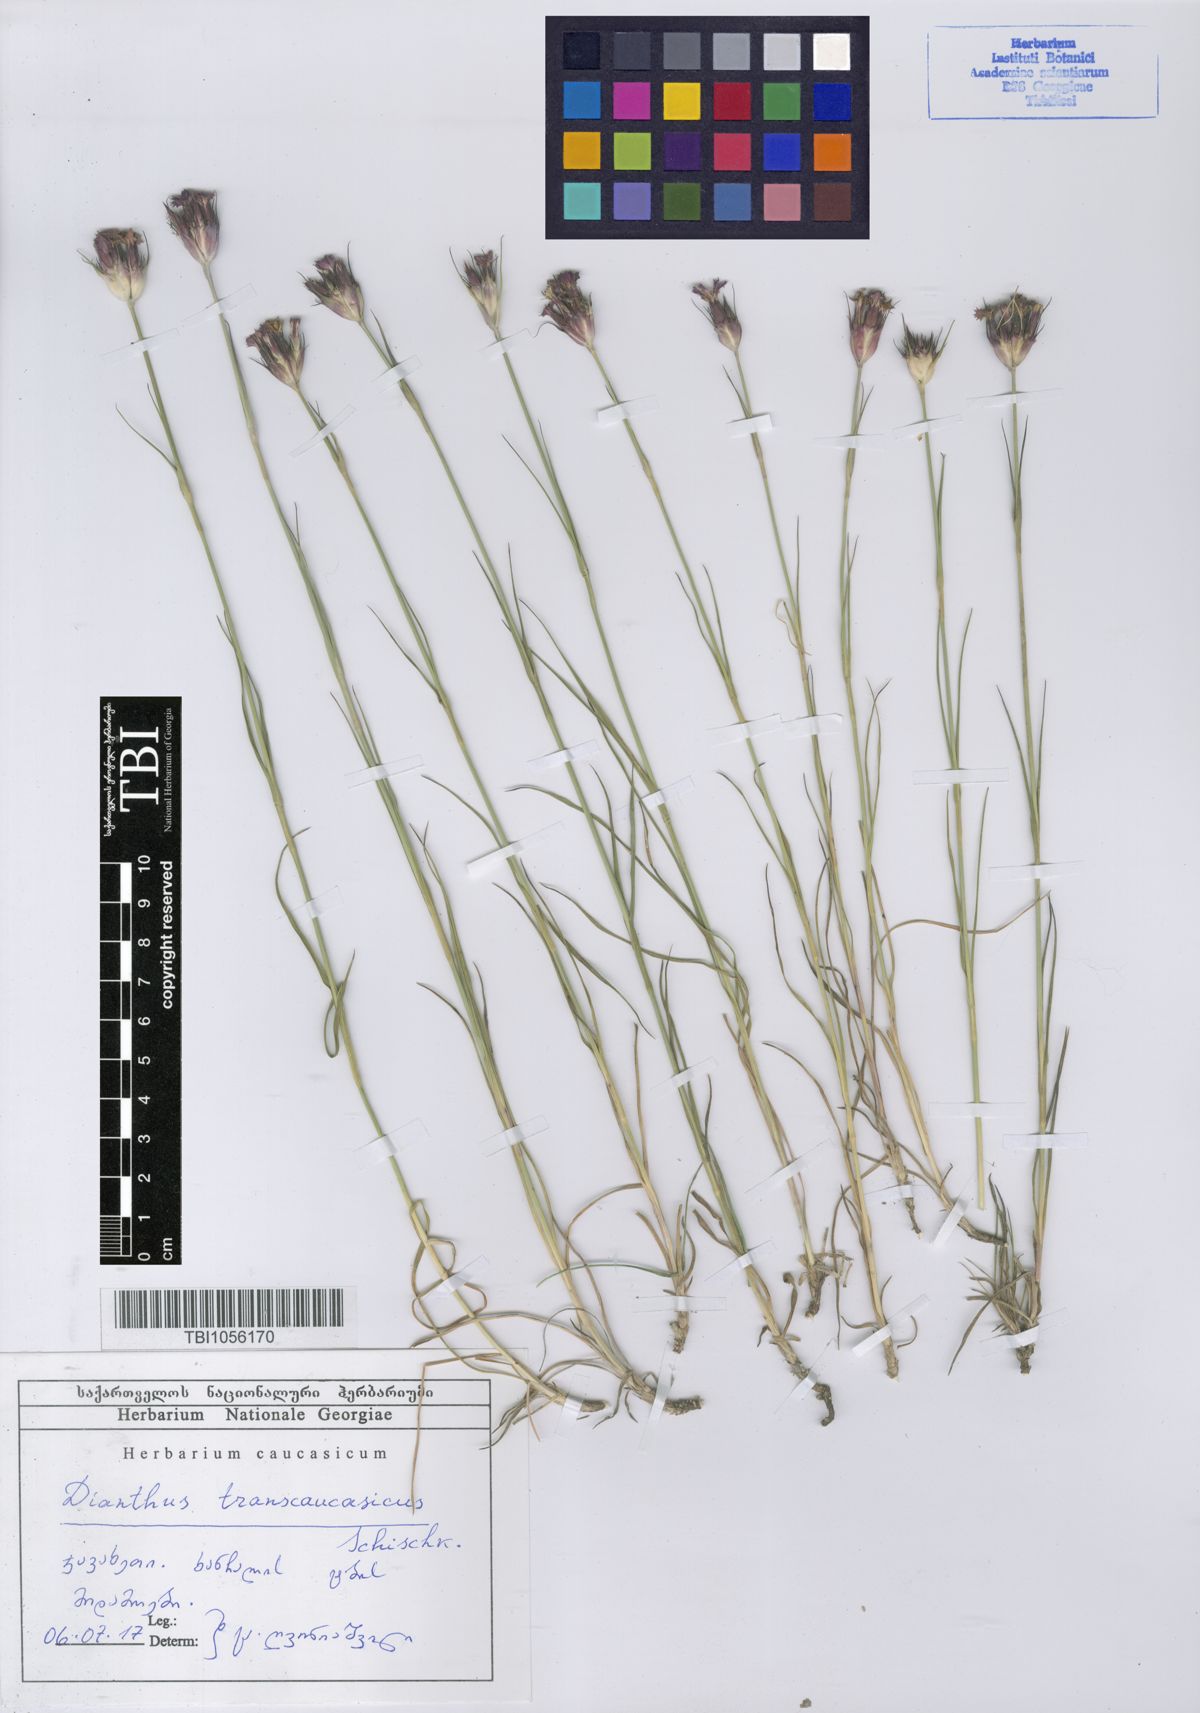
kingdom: Plantae
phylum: Tracheophyta
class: Magnoliopsida
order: Caryophyllales
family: Caryophyllaceae
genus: Dianthus
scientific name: Dianthus masmenaeus
